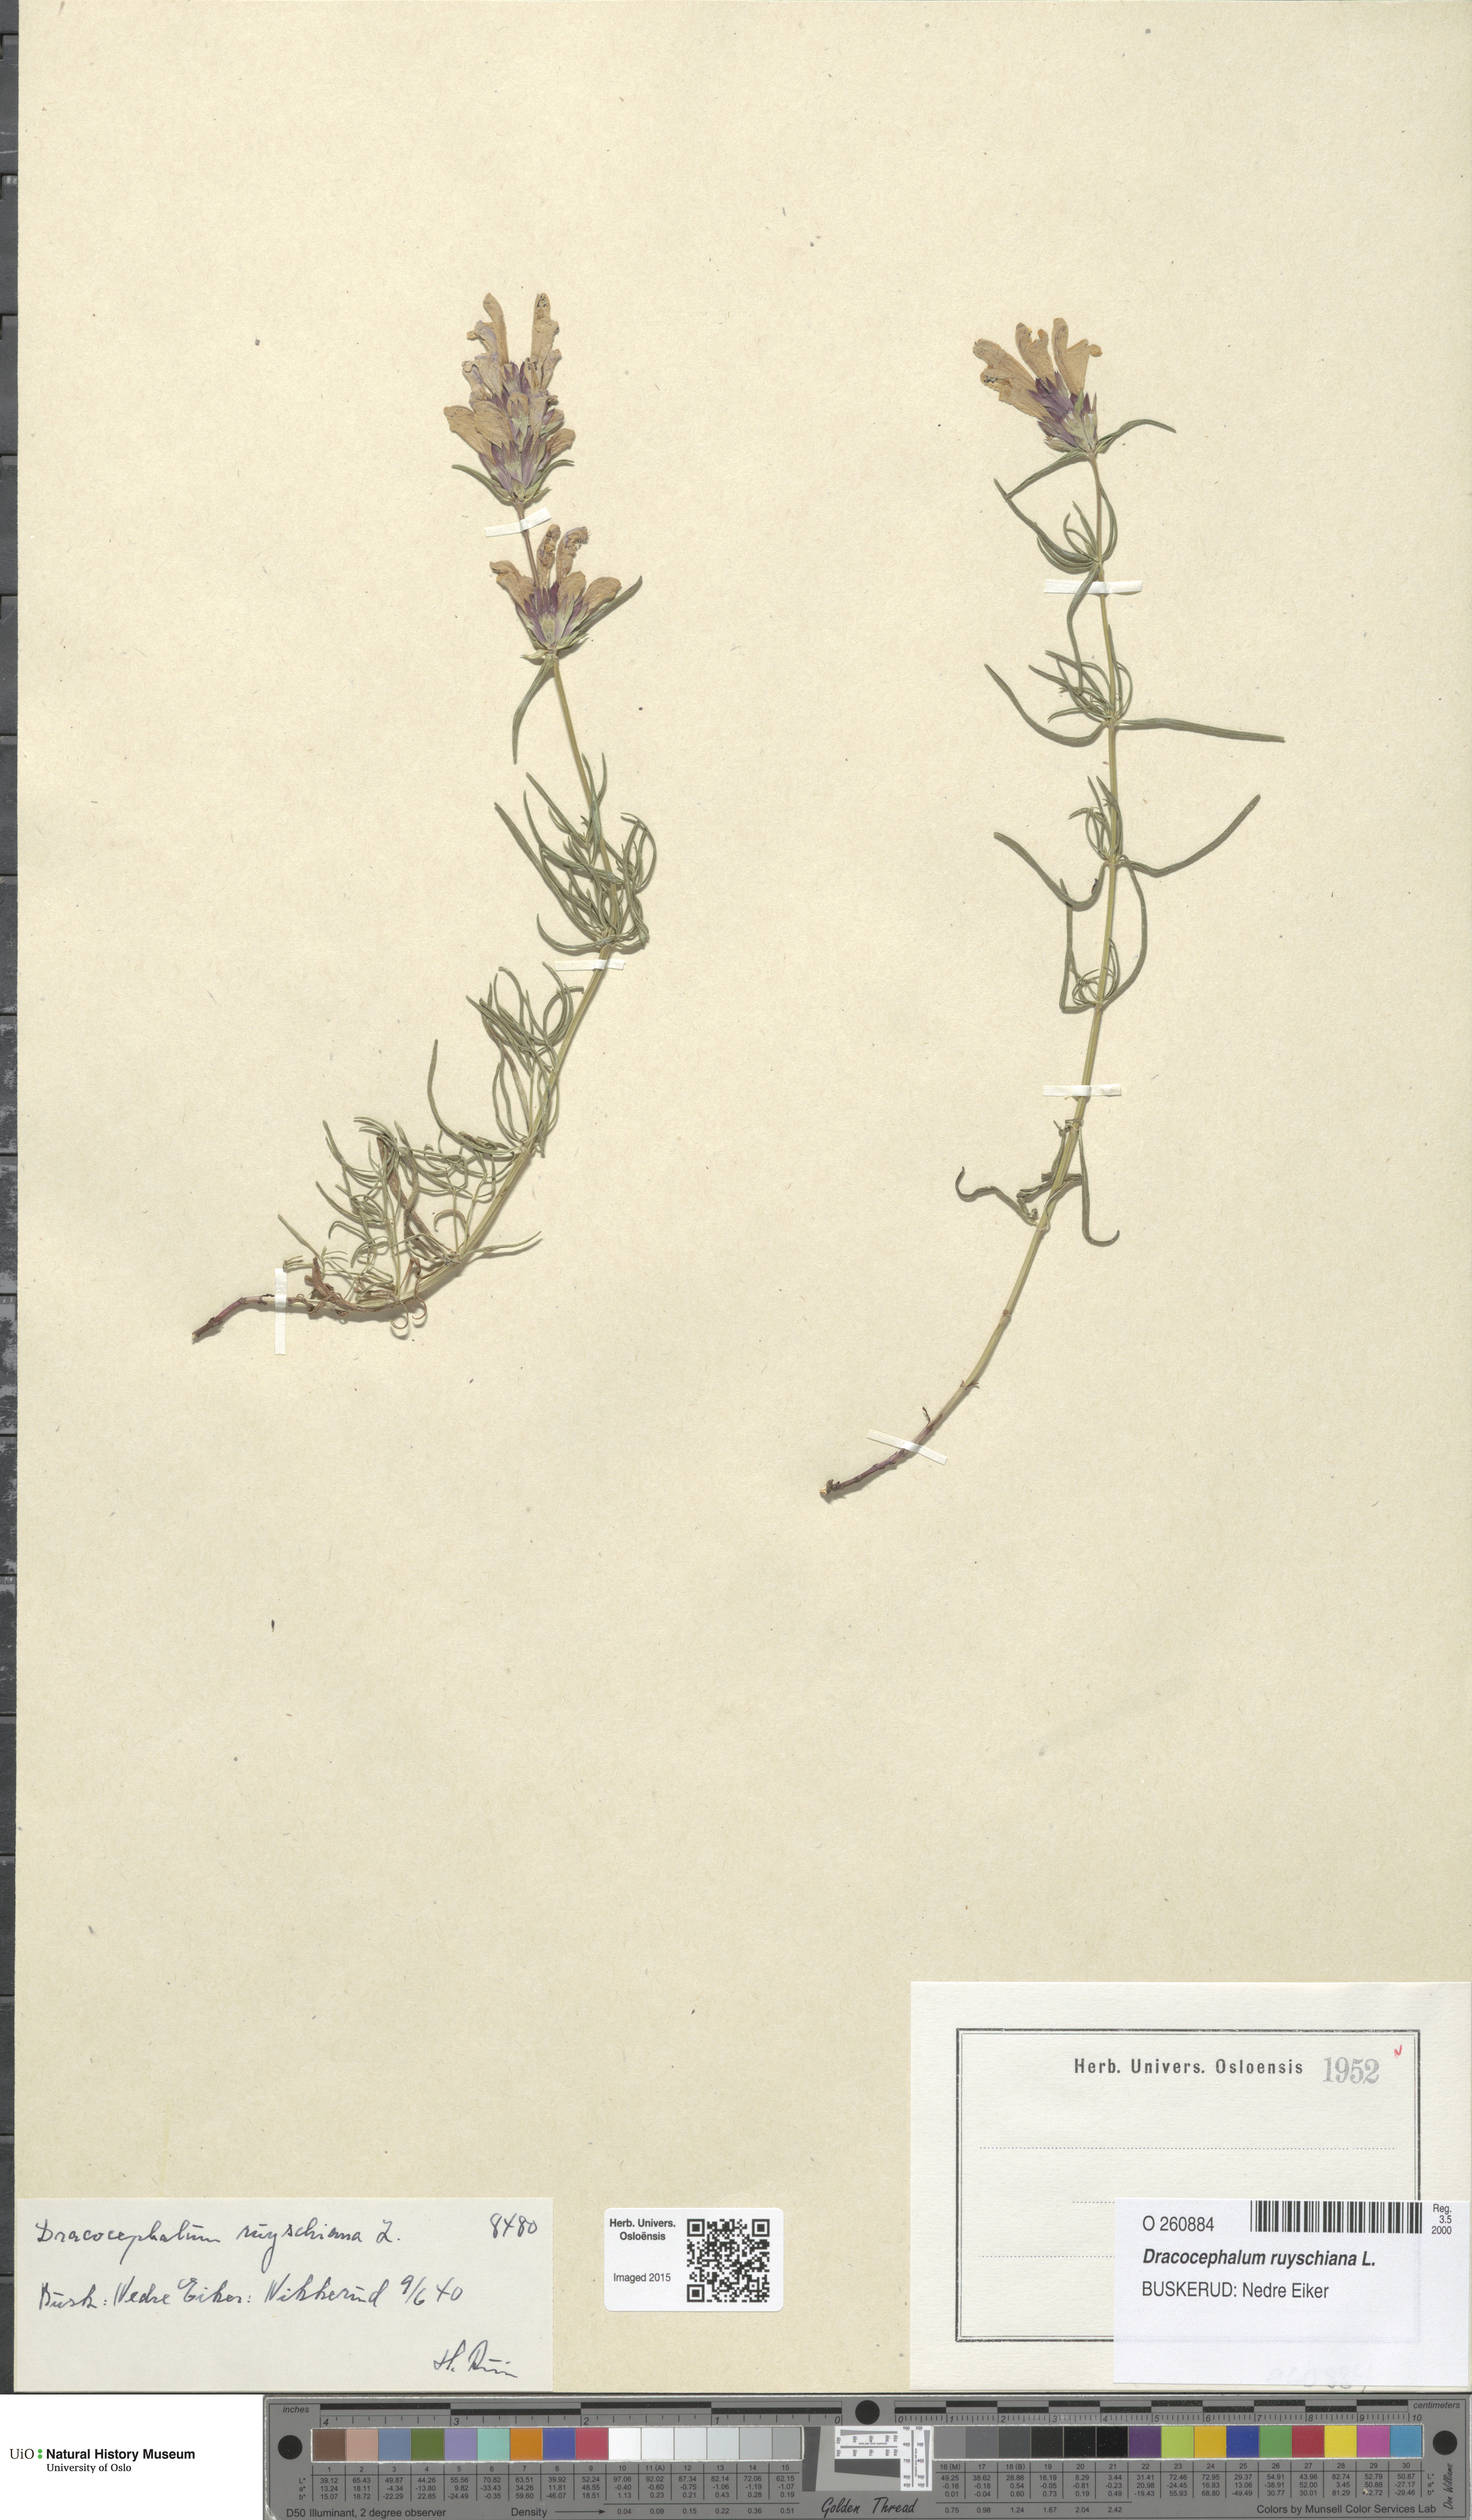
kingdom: Plantae
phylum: Tracheophyta
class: Magnoliopsida
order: Lamiales
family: Lamiaceae
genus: Dracocephalum
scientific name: Dracocephalum ruyschiana
